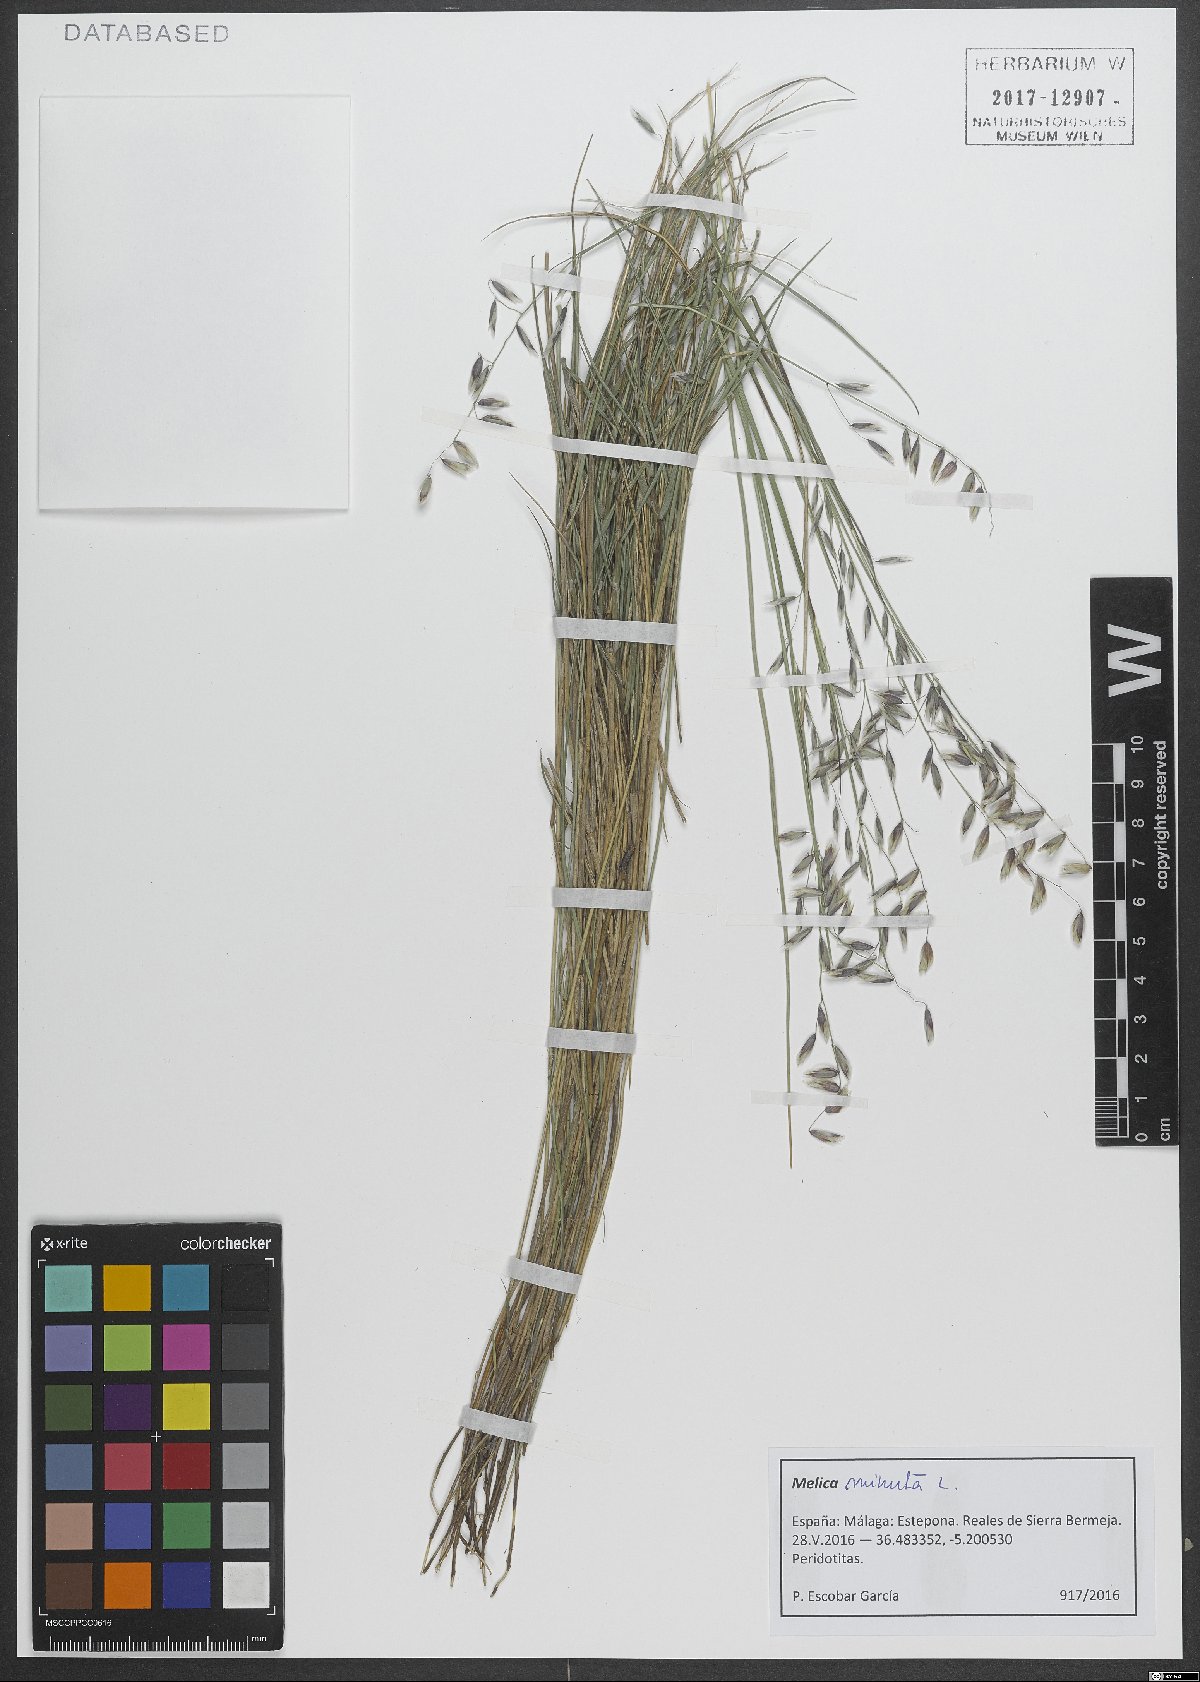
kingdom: Plantae
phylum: Tracheophyta
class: Liliopsida
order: Poales
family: Poaceae
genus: Melica
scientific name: Melica minuta
